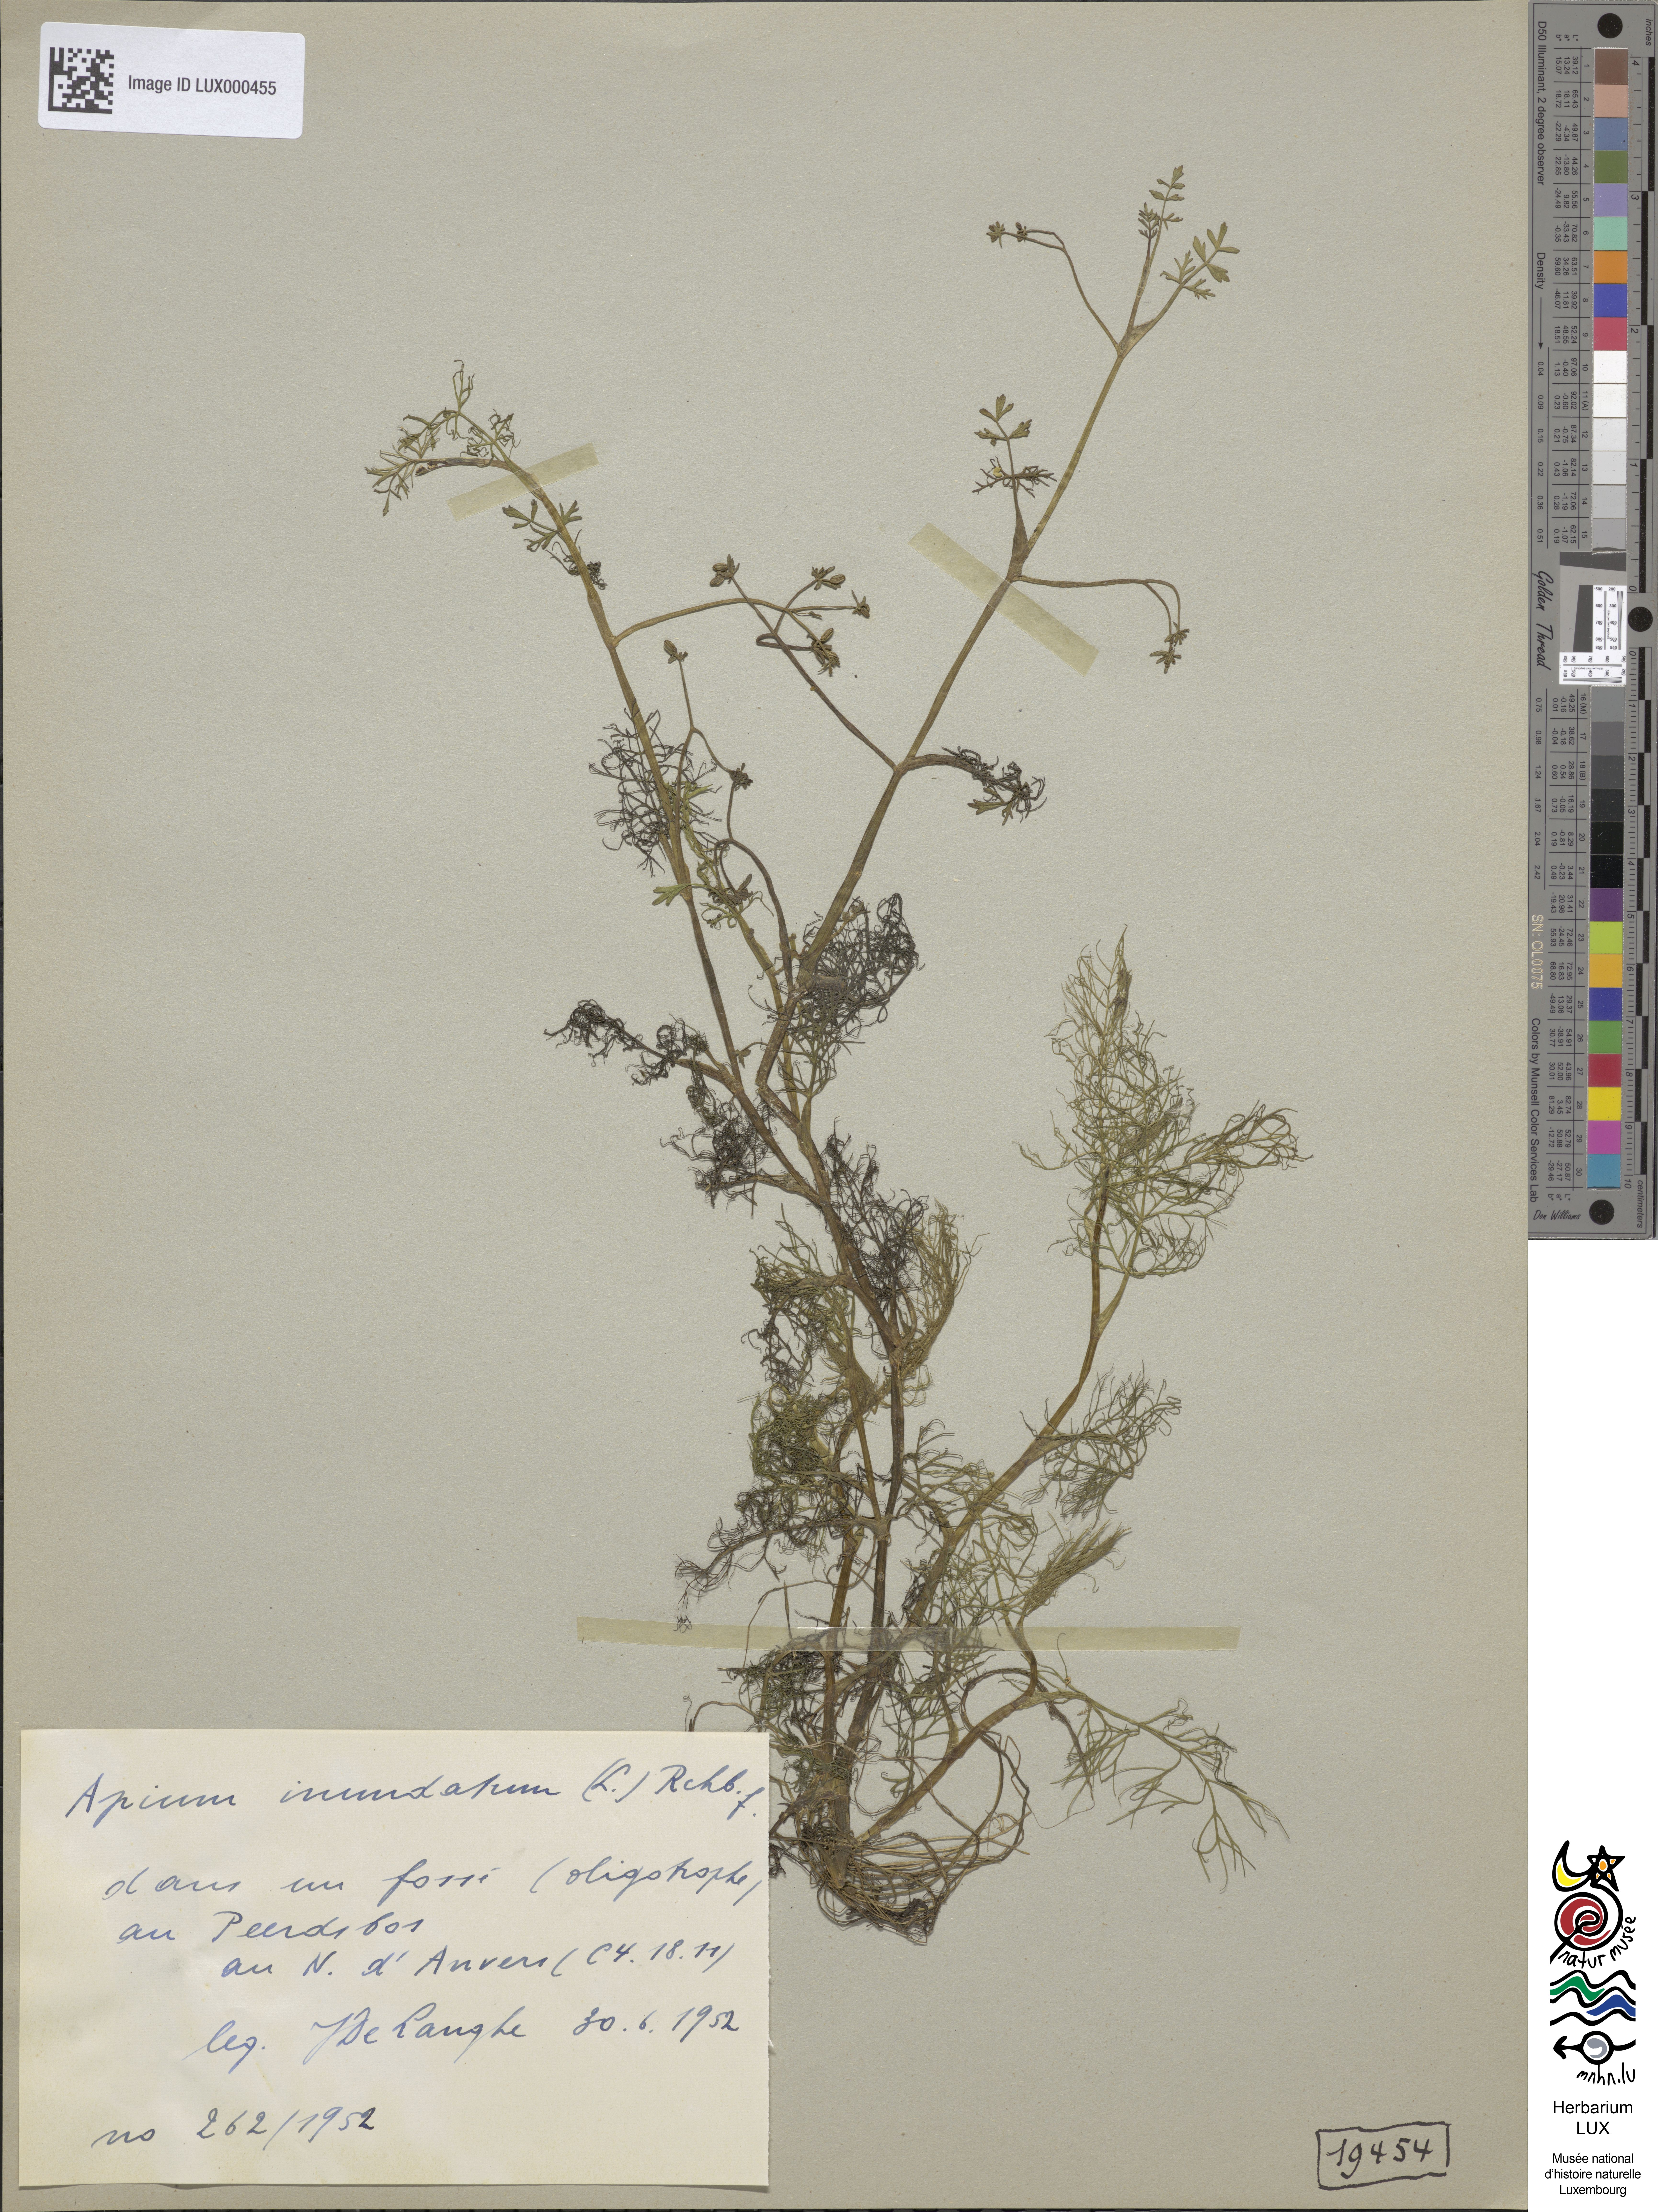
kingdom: Plantae
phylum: Tracheophyta
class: Magnoliopsida
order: Apiales
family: Apiaceae
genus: Helosciadium
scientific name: Helosciadium inundatum
